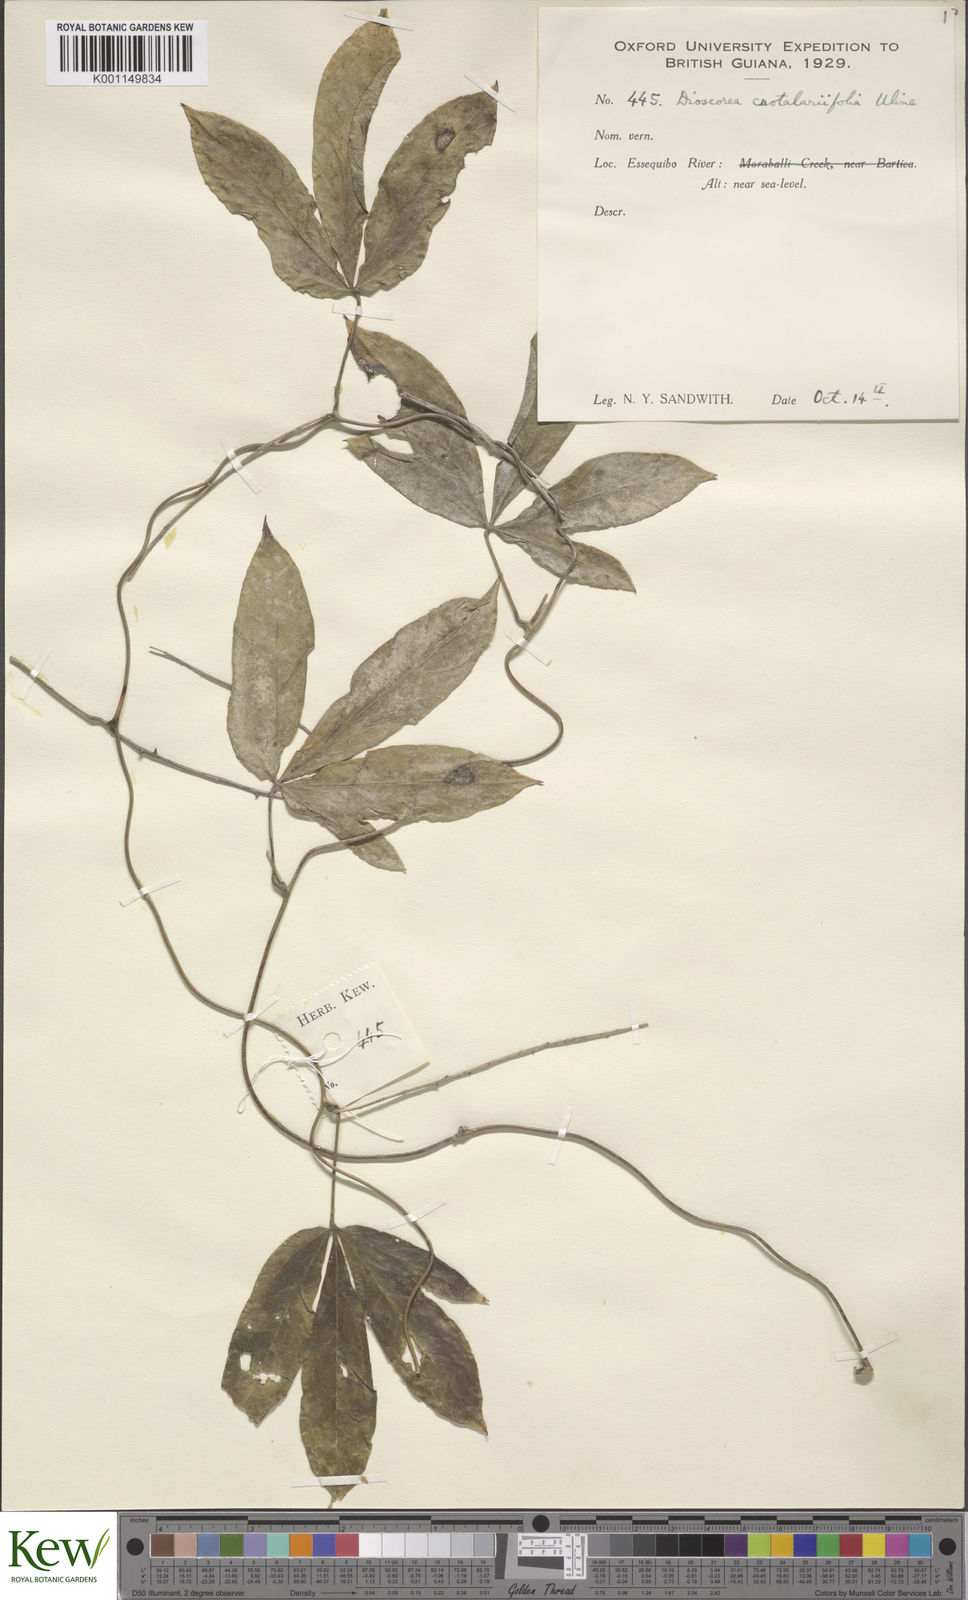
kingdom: Plantae
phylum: Tracheophyta
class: Liliopsida
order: Dioscoreales
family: Dioscoreaceae
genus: Dioscorea
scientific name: Dioscorea crotalariifolia
